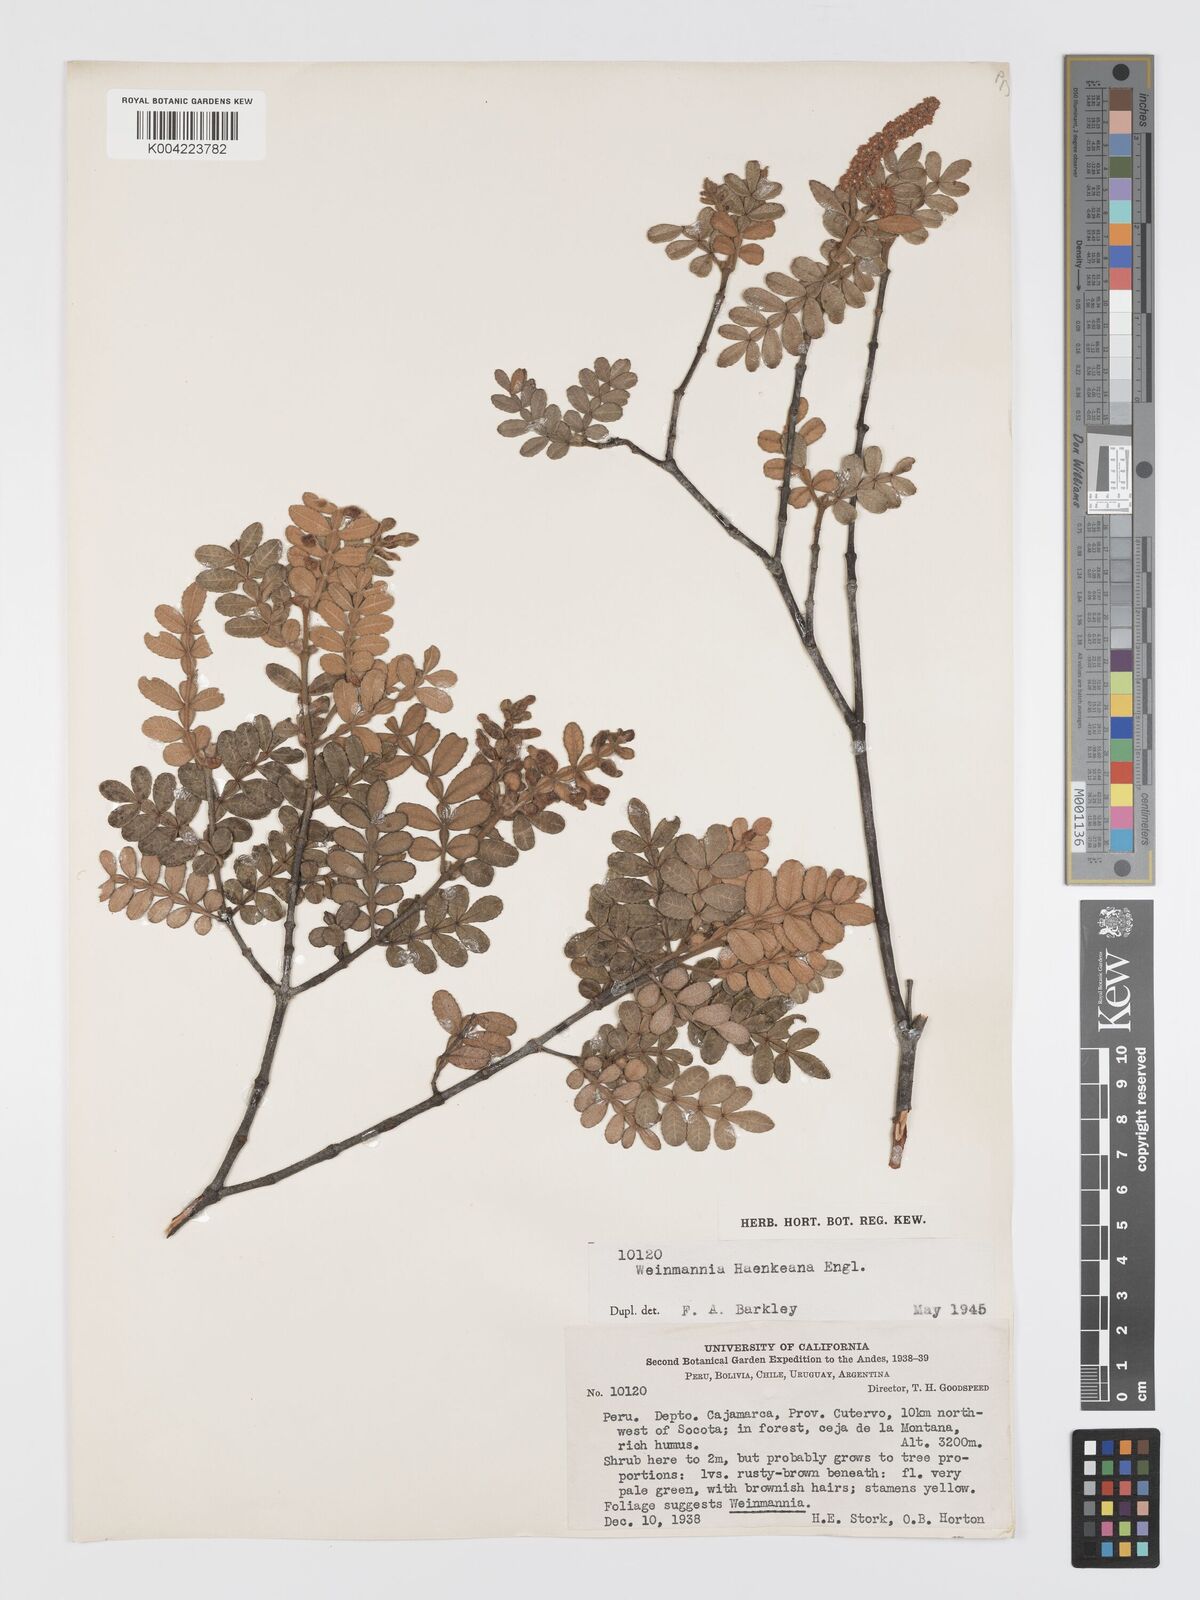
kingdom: Plantae
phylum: Tracheophyta
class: Magnoliopsida
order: Oxalidales
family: Cunoniaceae
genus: Weinmannia
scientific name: Weinmannia haenkeana
